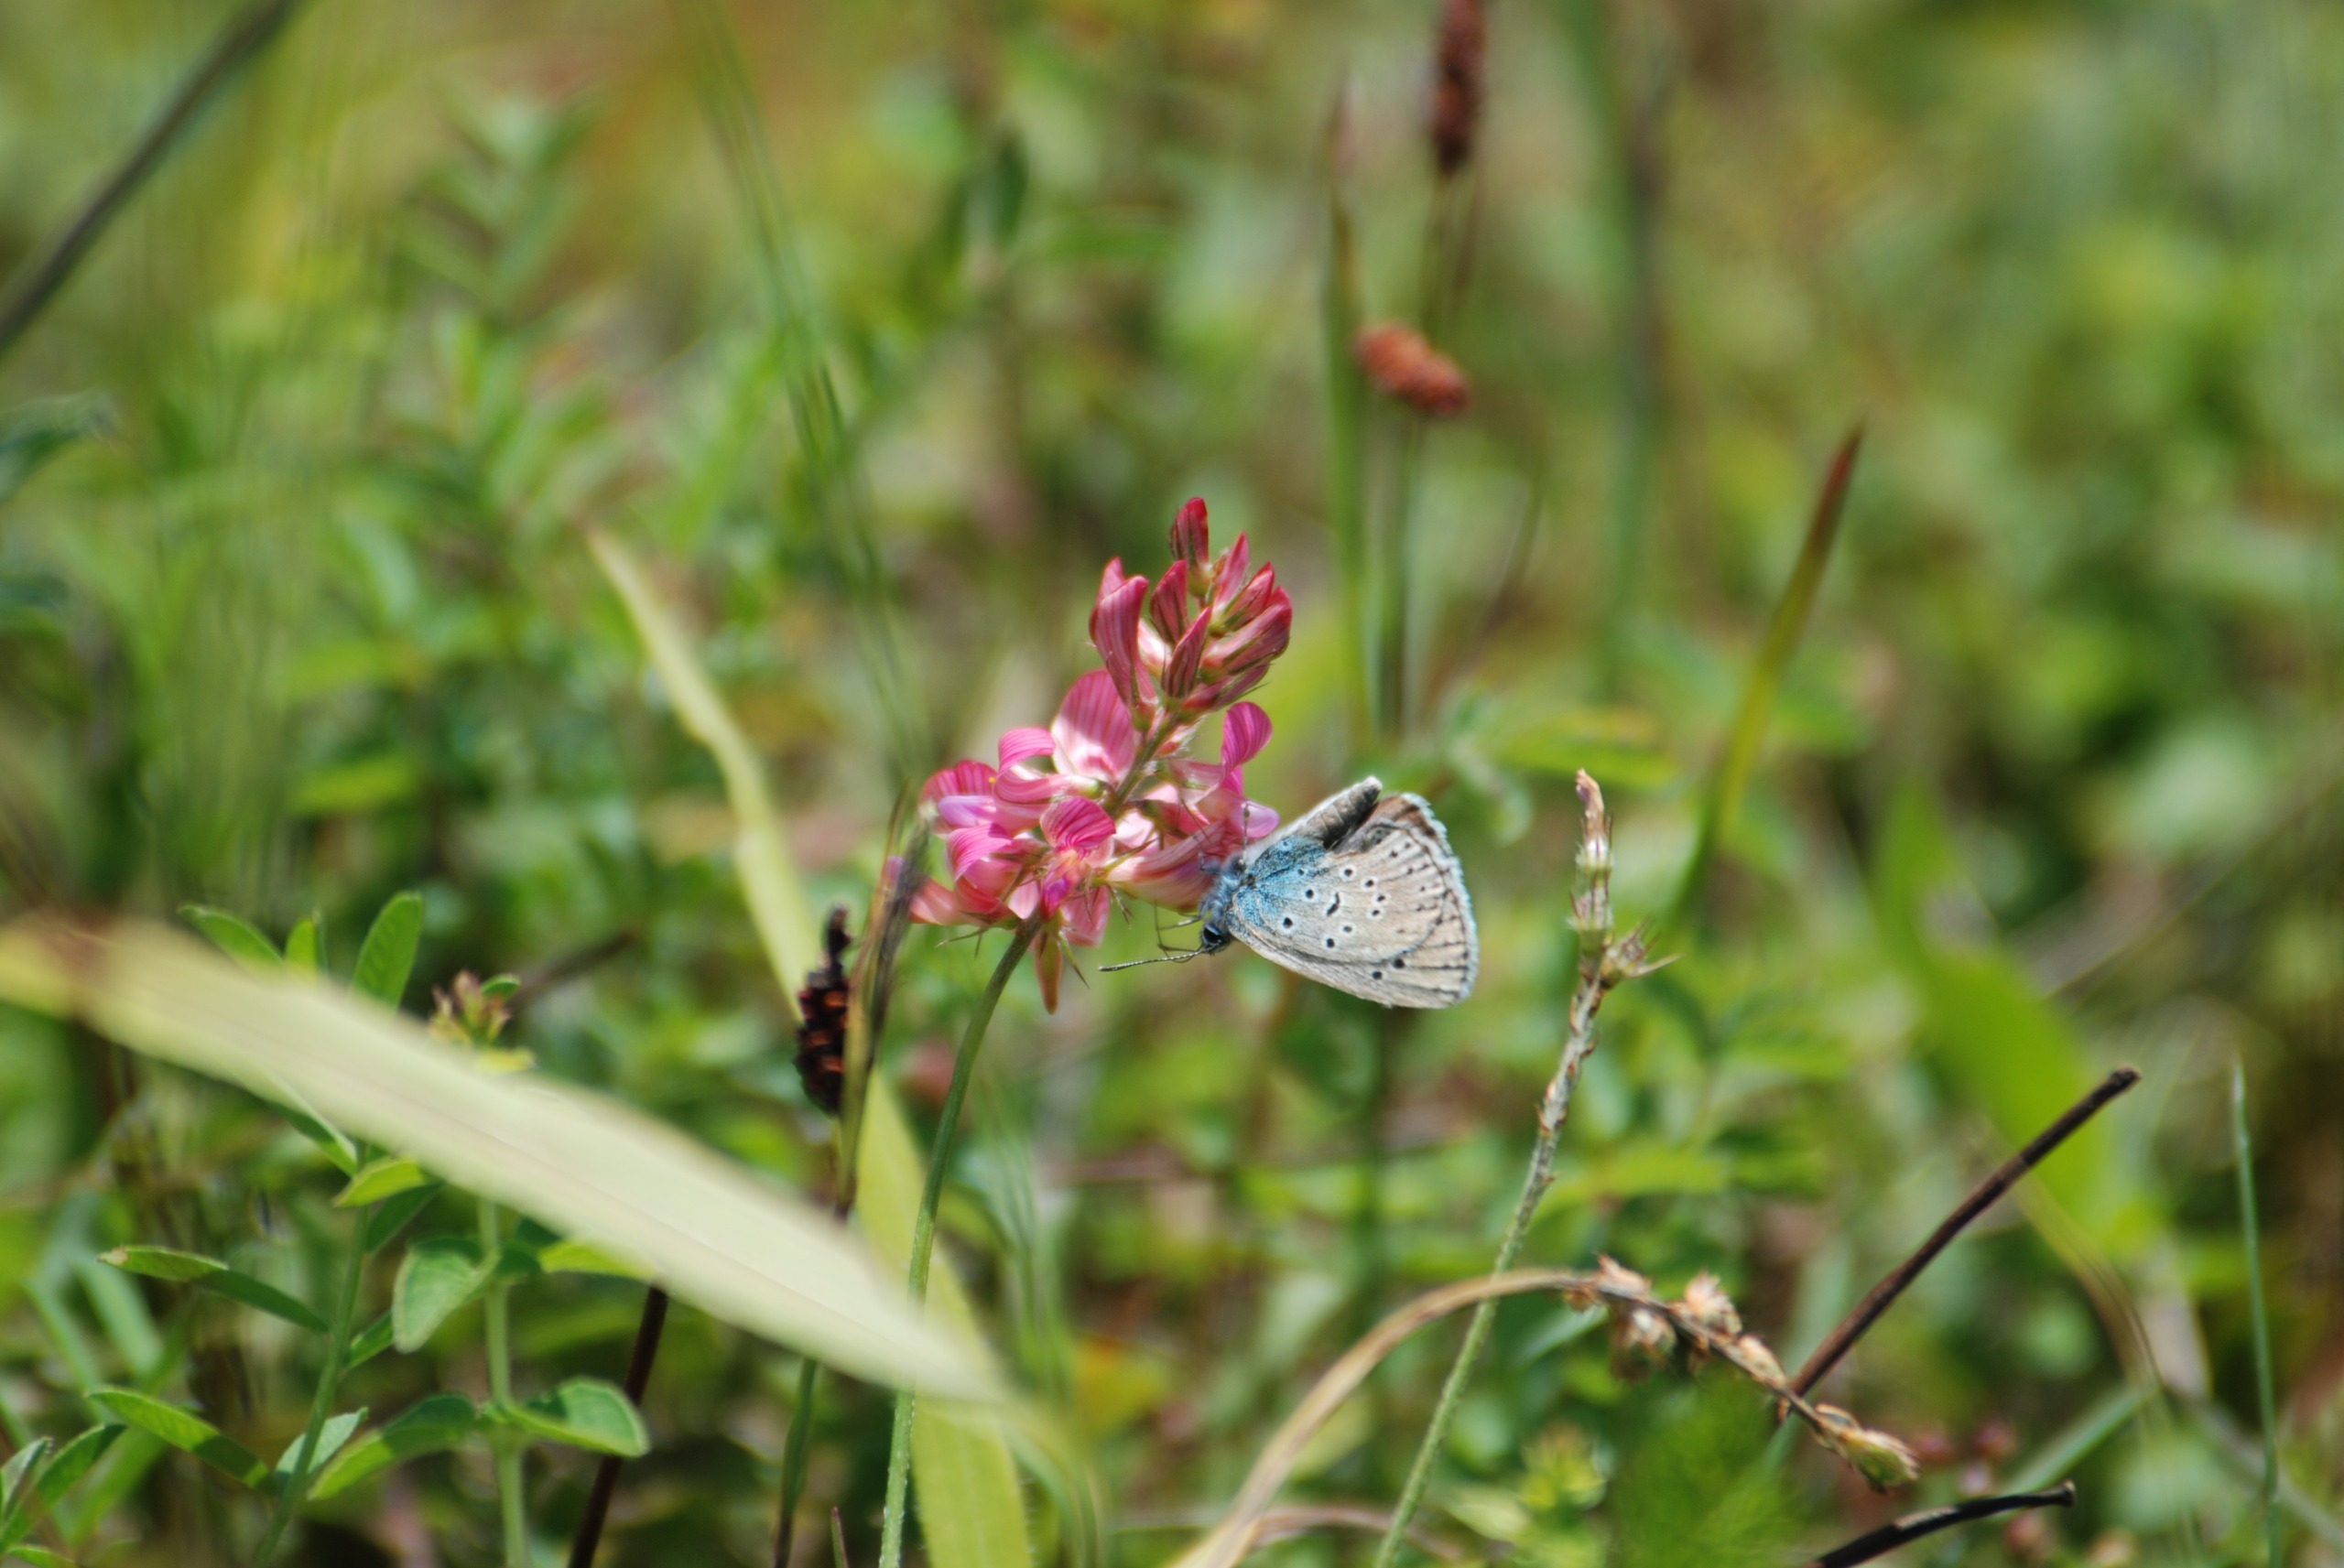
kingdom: Animalia
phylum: Arthropoda
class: Insecta
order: Lepidoptera
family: Lycaenidae
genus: Maculinea
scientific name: Maculinea arion
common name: Sortplettet blåfugl
